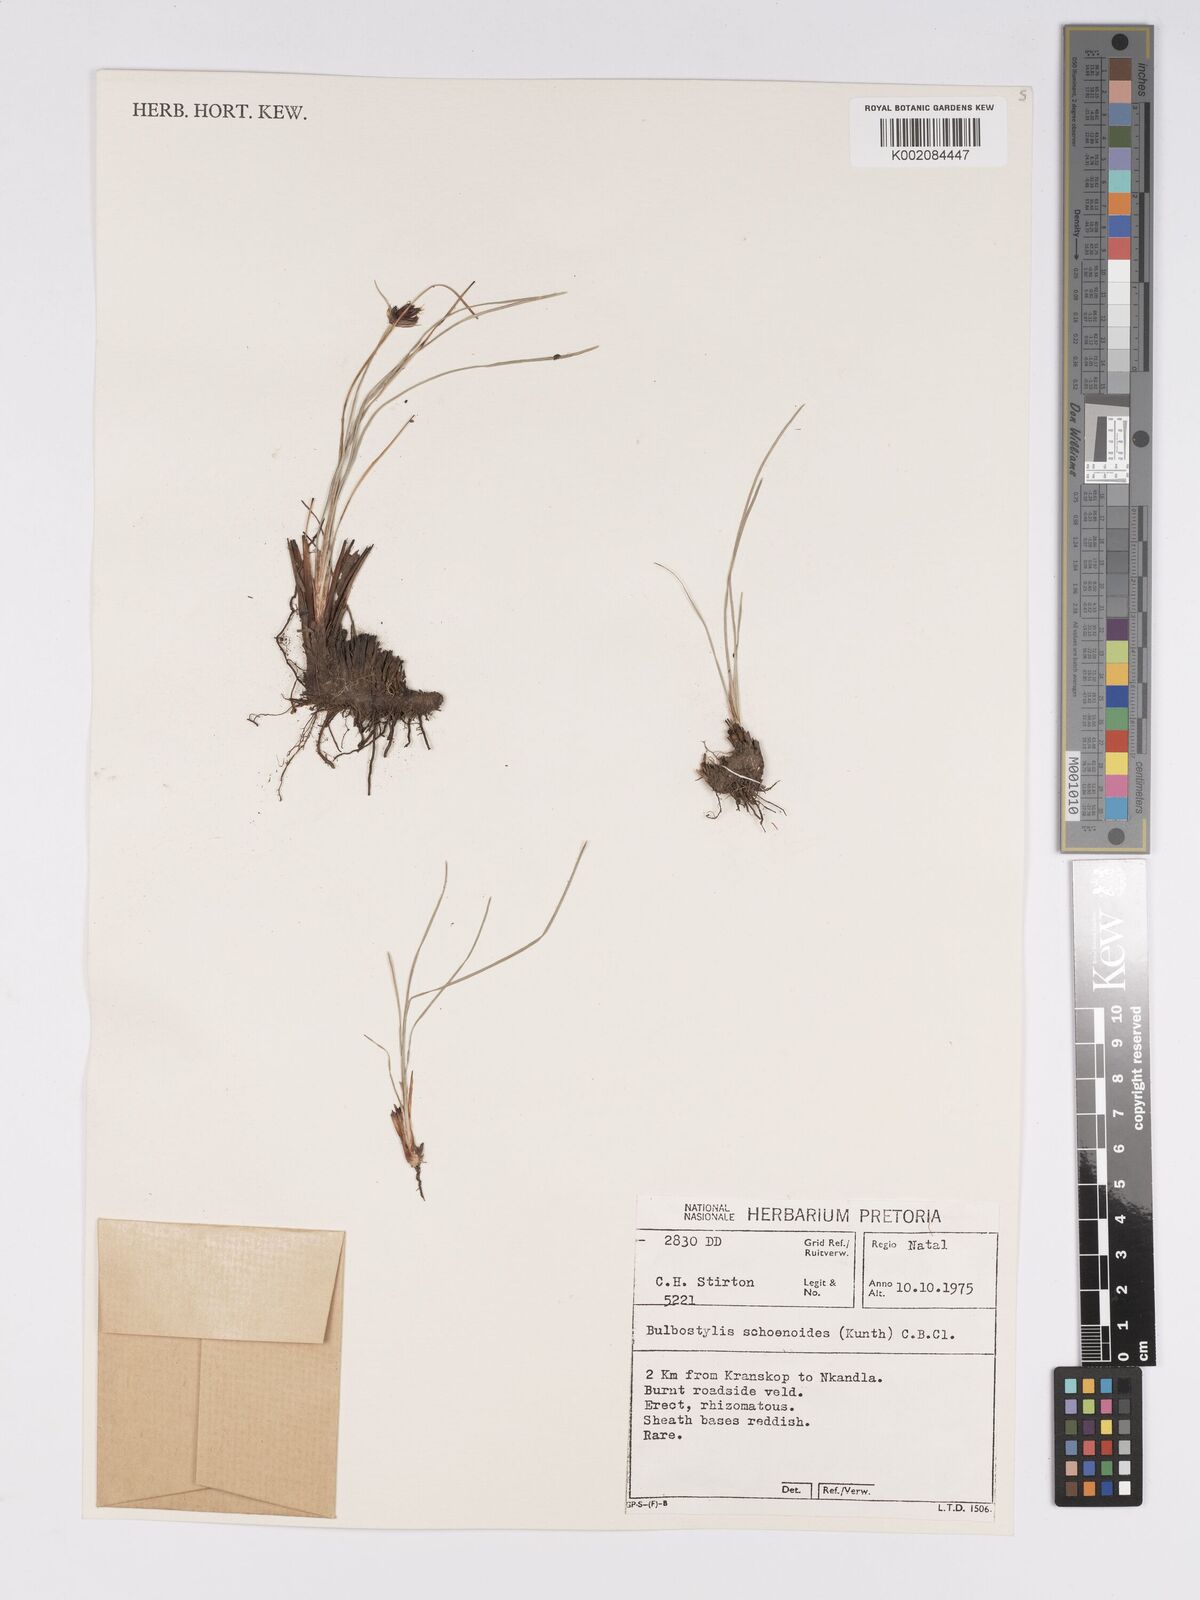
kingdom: Plantae
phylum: Tracheophyta
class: Liliopsida
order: Poales
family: Cyperaceae
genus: Bulbostylis
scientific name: Bulbostylis schoenoides
